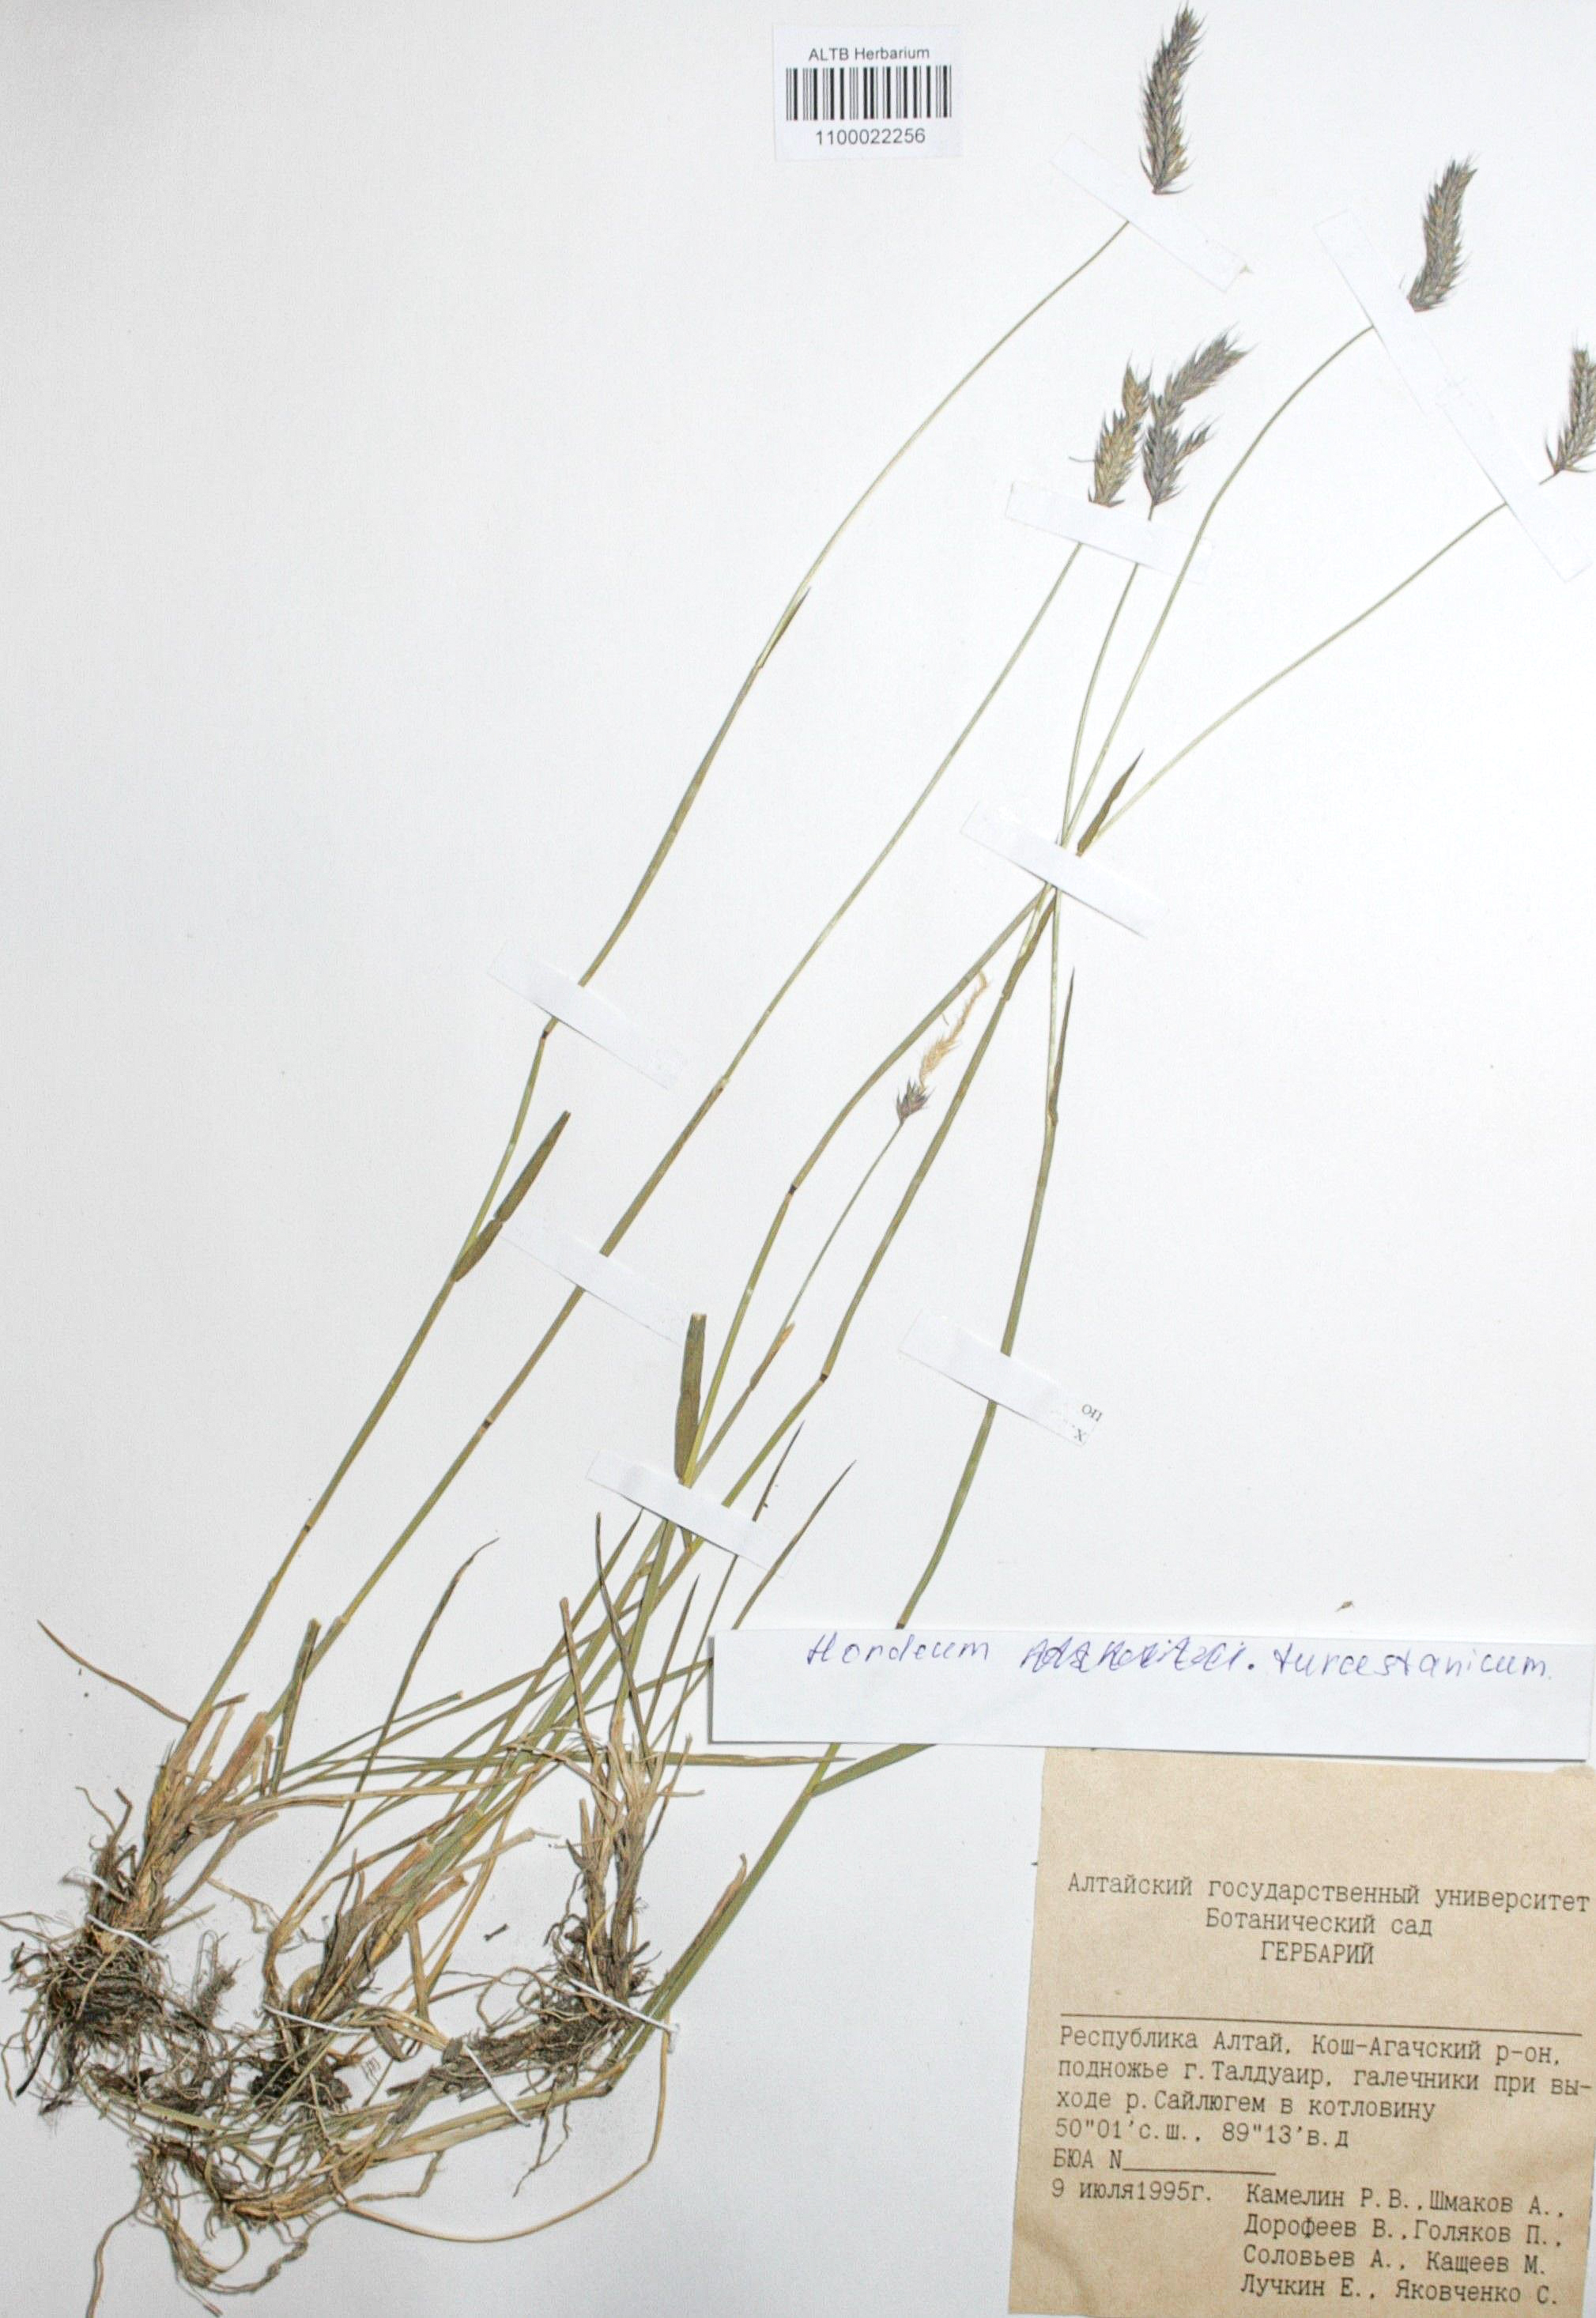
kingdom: Plantae
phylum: Tracheophyta
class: Liliopsida
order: Poales
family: Poaceae
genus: Hordeum
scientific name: Hordeum brevisubulatum
